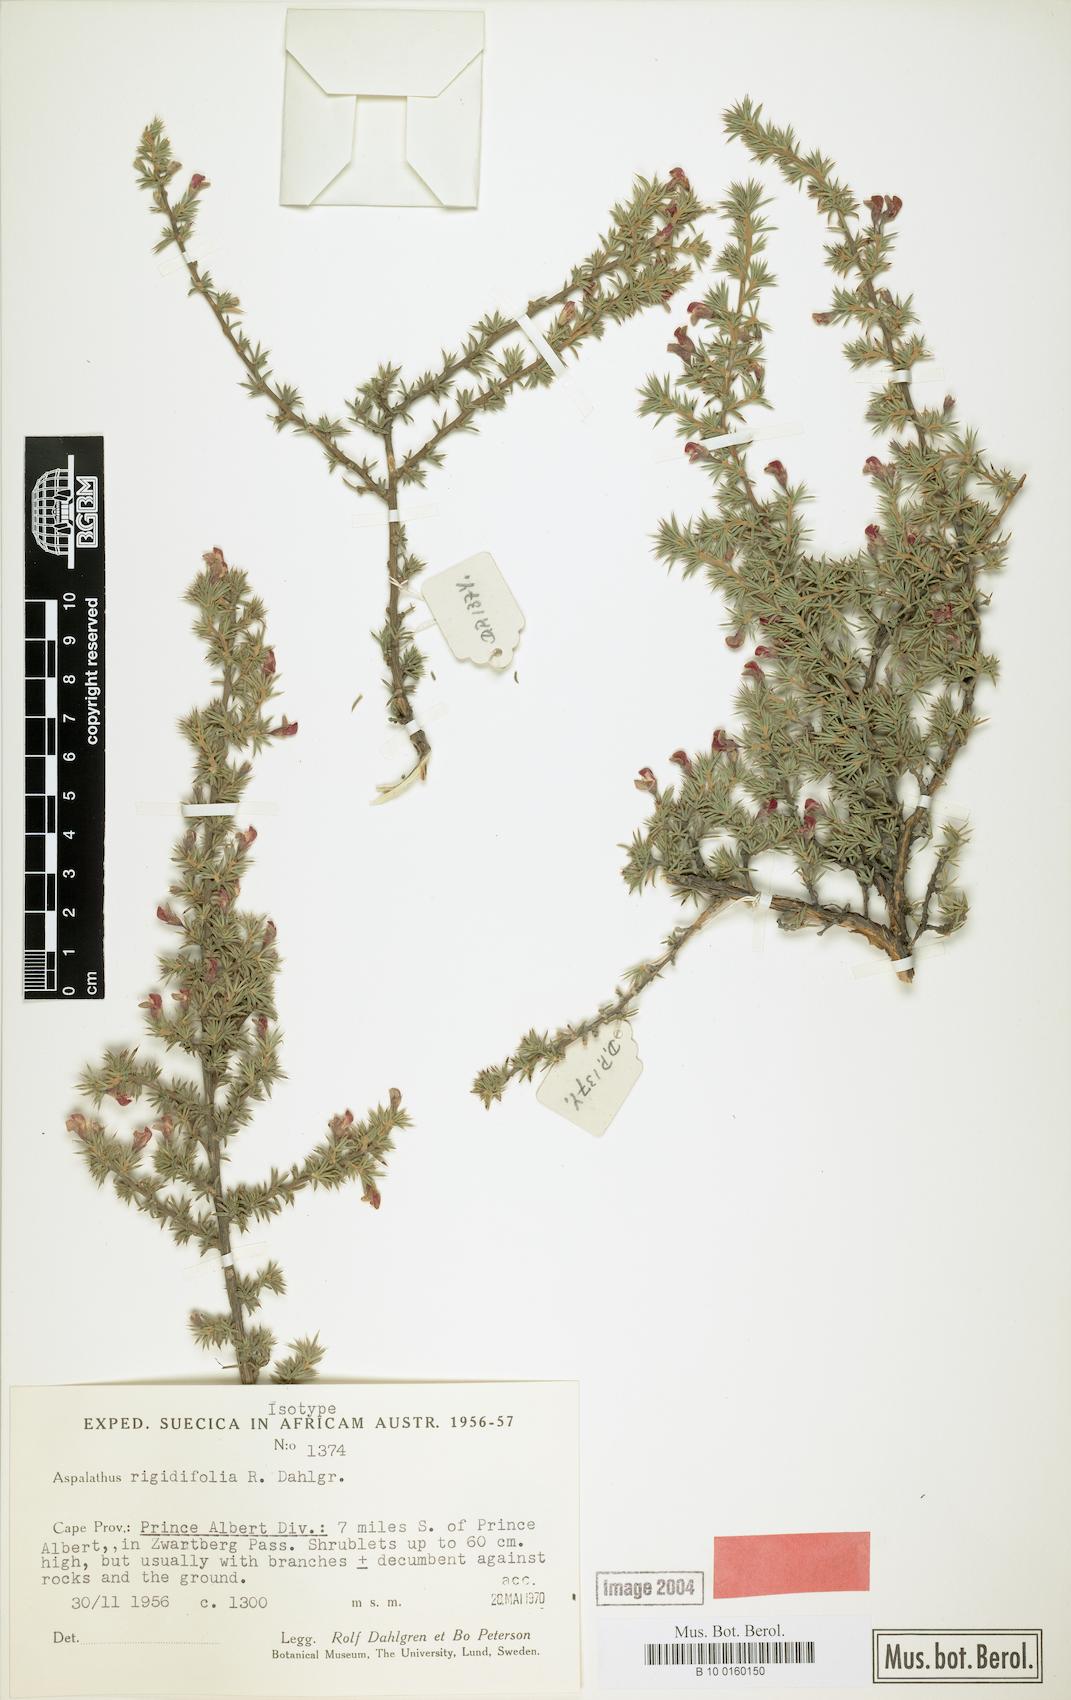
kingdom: Plantae
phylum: Tracheophyta
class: Magnoliopsida
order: Fabales
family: Fabaceae
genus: Aspalathus
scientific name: Aspalathus rigidifolia
